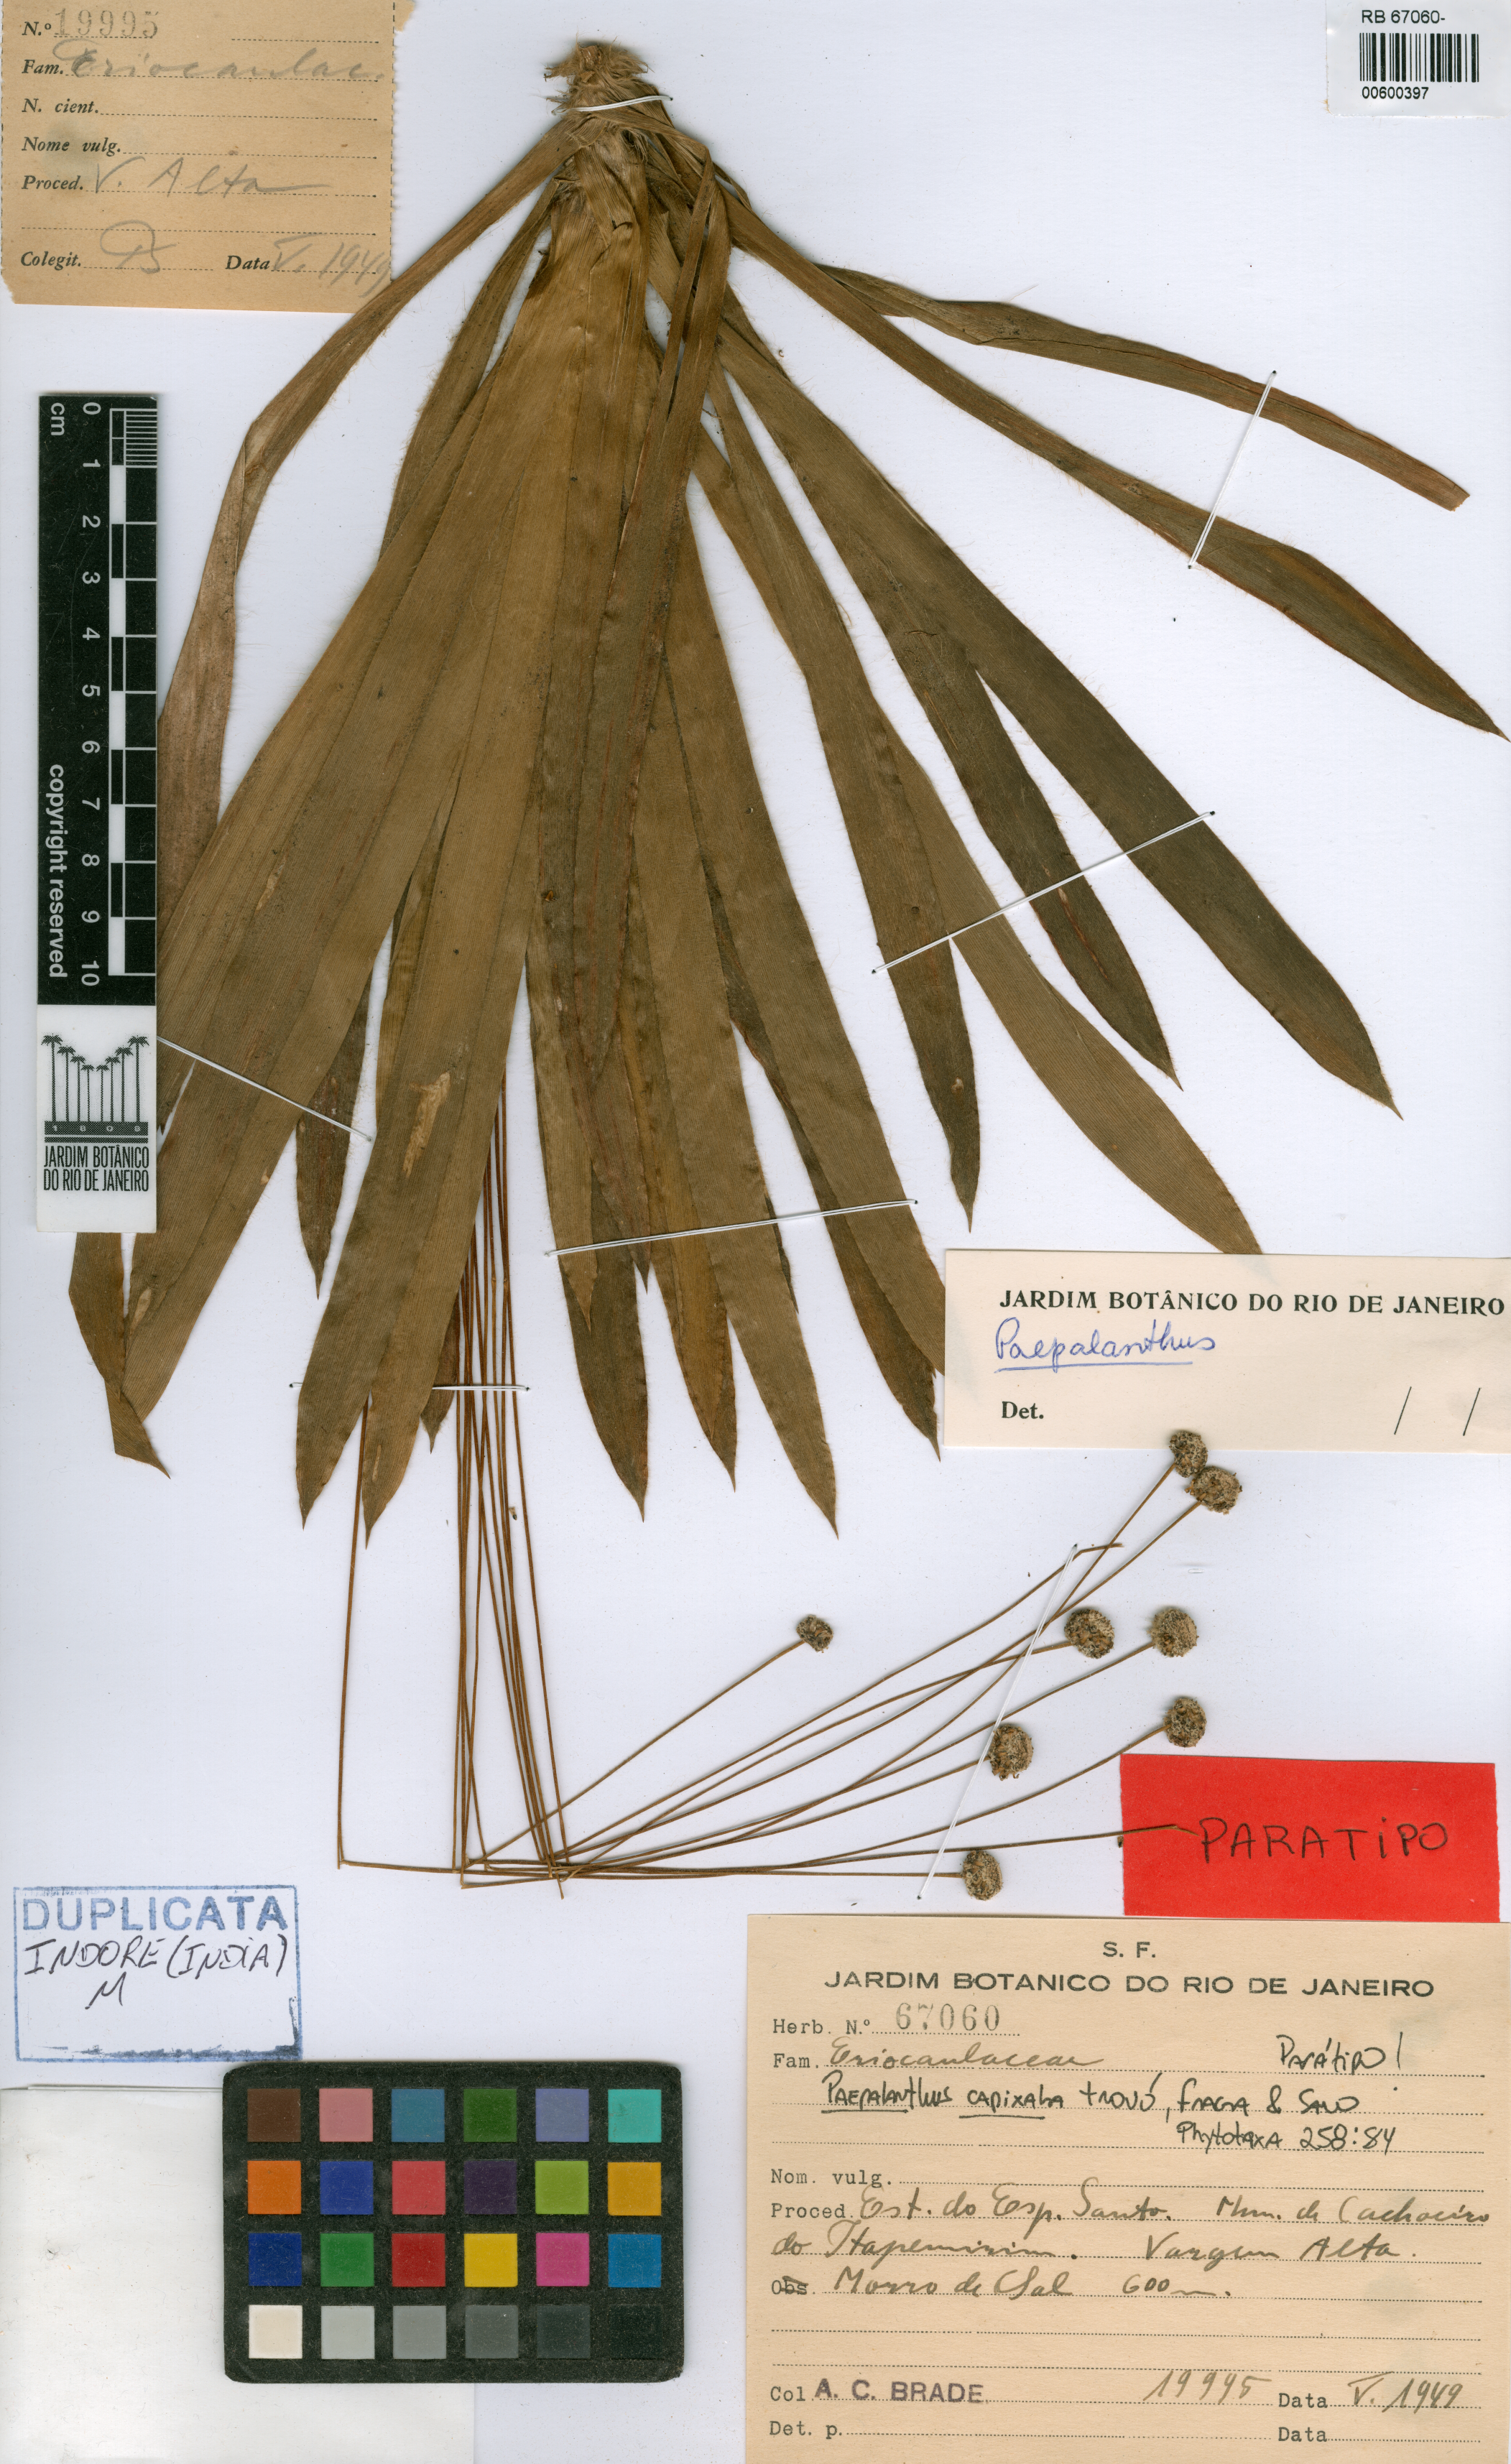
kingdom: Plantae
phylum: Tracheophyta
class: Liliopsida
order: Poales
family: Eriocaulaceae
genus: Paepalanthus
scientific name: Paepalanthus capixaba
